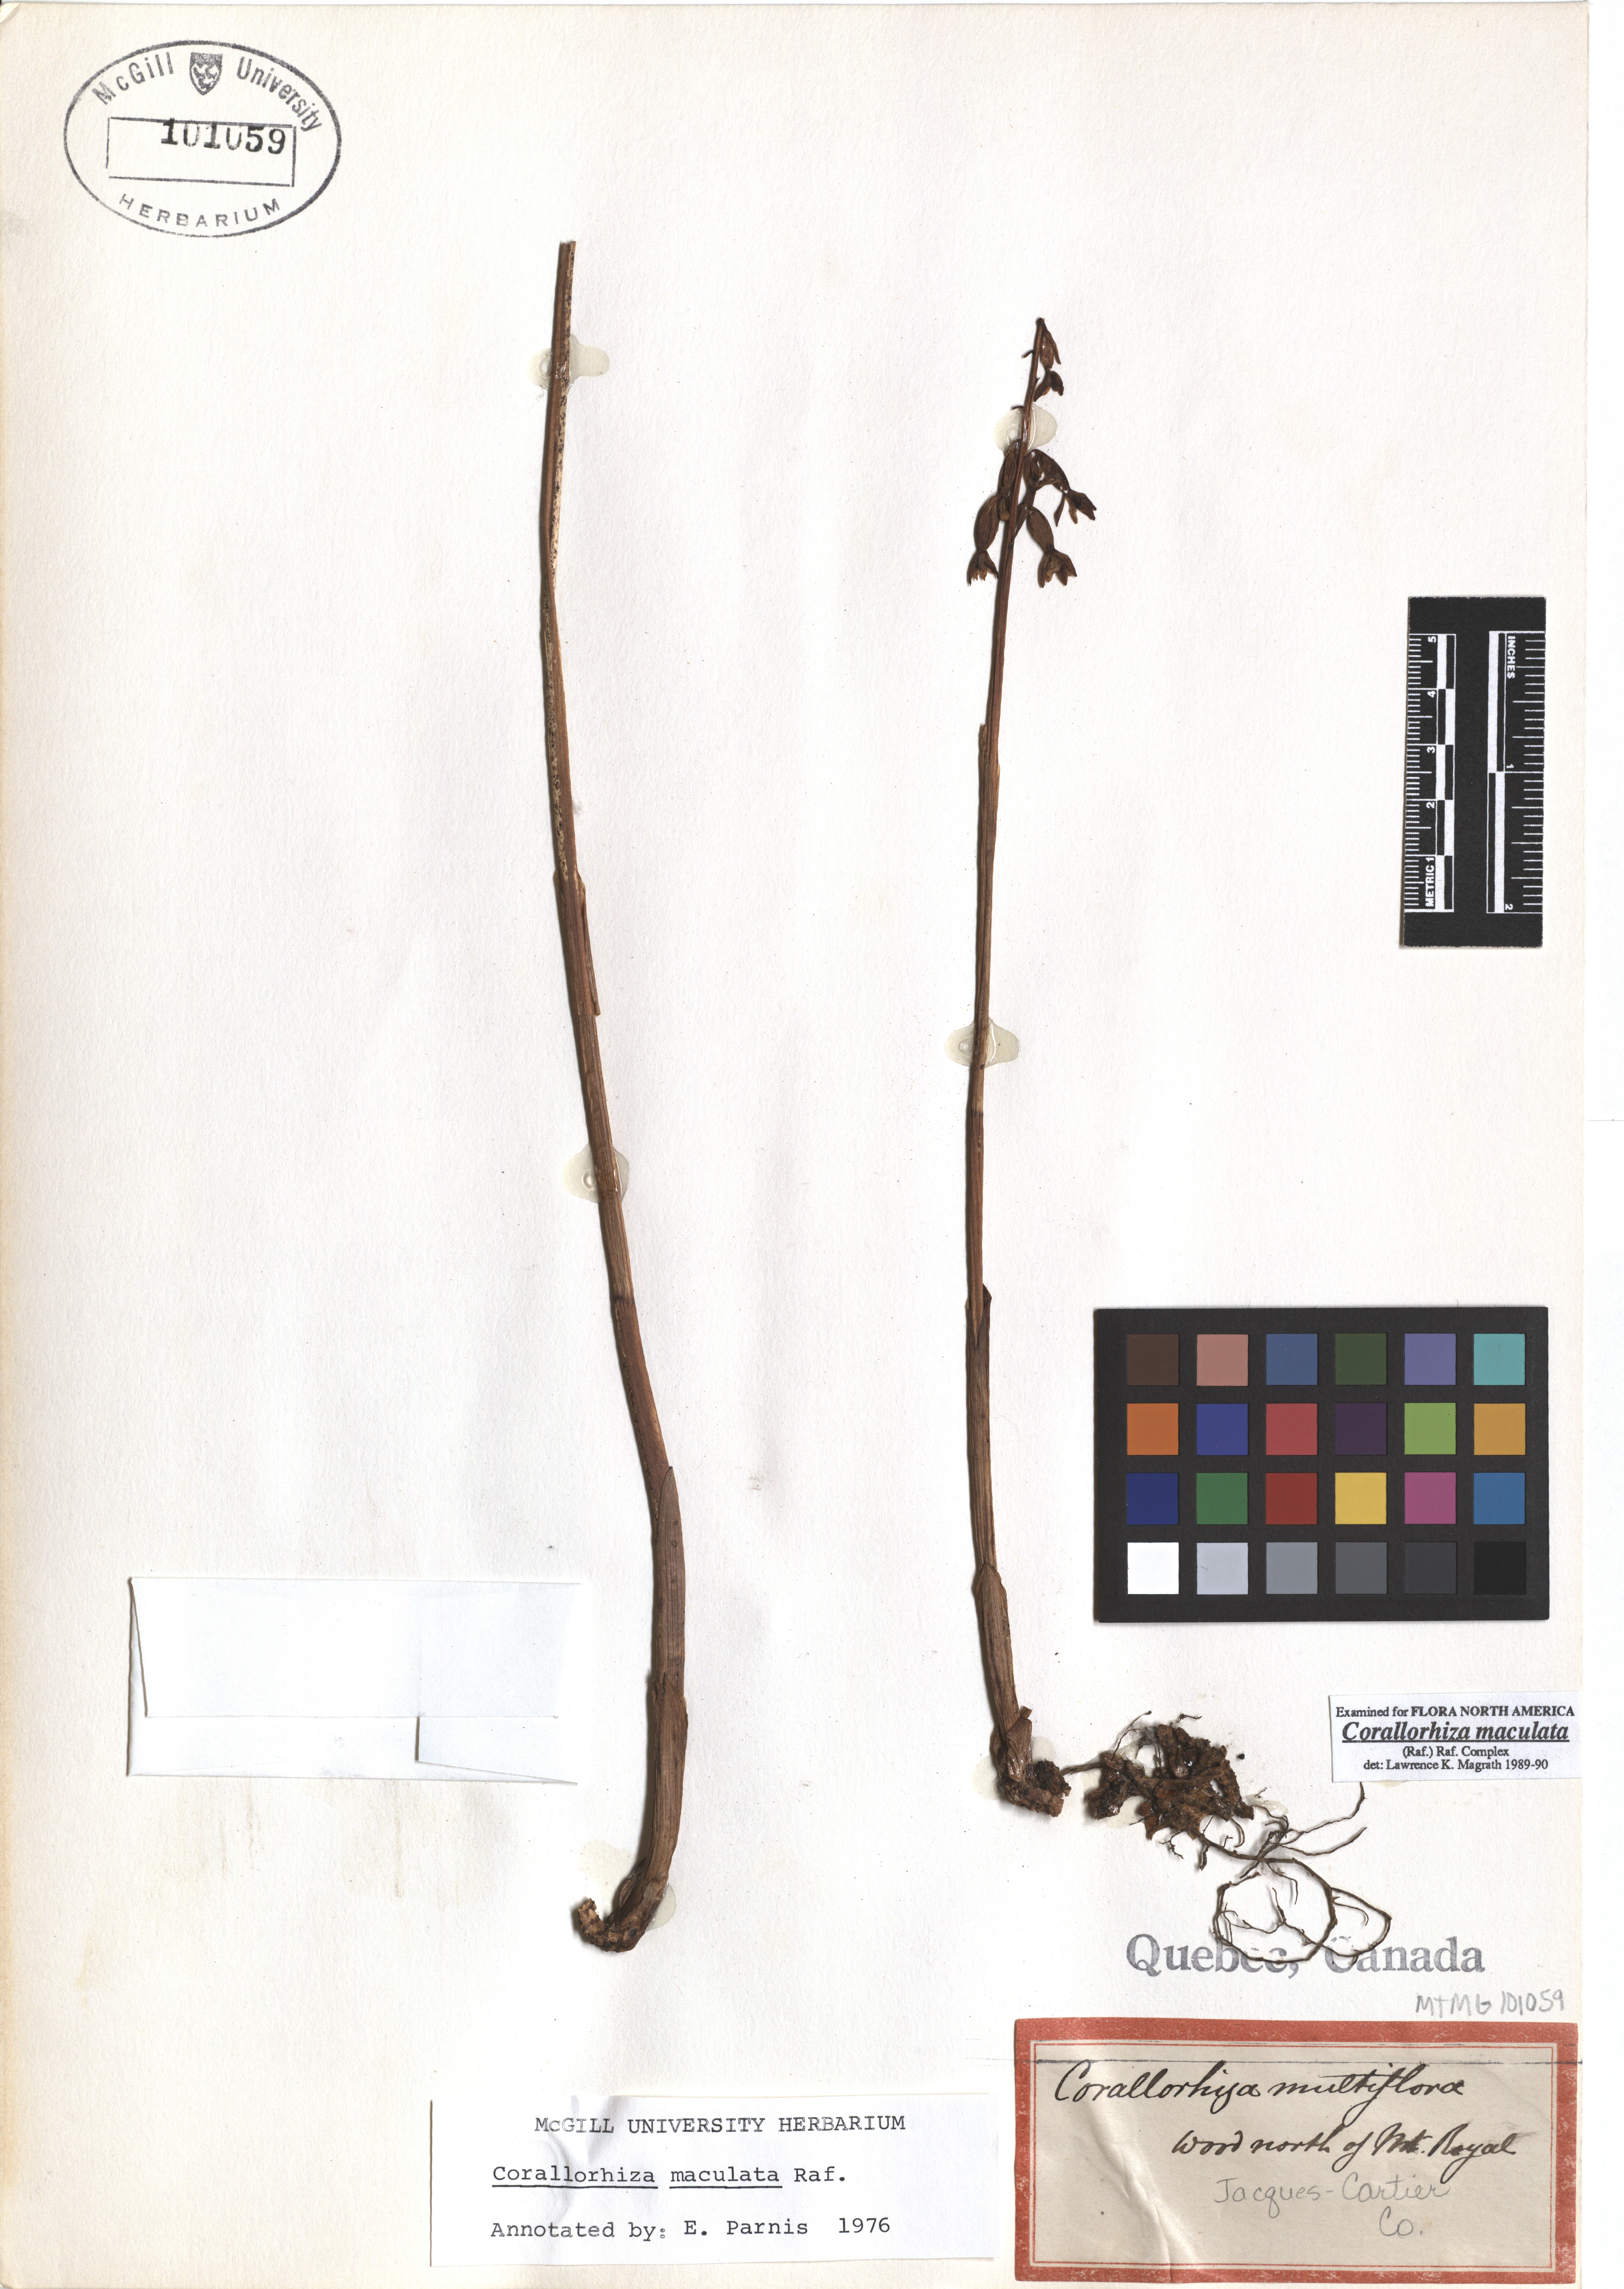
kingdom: Plantae
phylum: Tracheophyta
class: Liliopsida
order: Asparagales
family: Orchidaceae
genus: Corallorhiza
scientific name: Corallorhiza maculata
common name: Spotted coralroot
